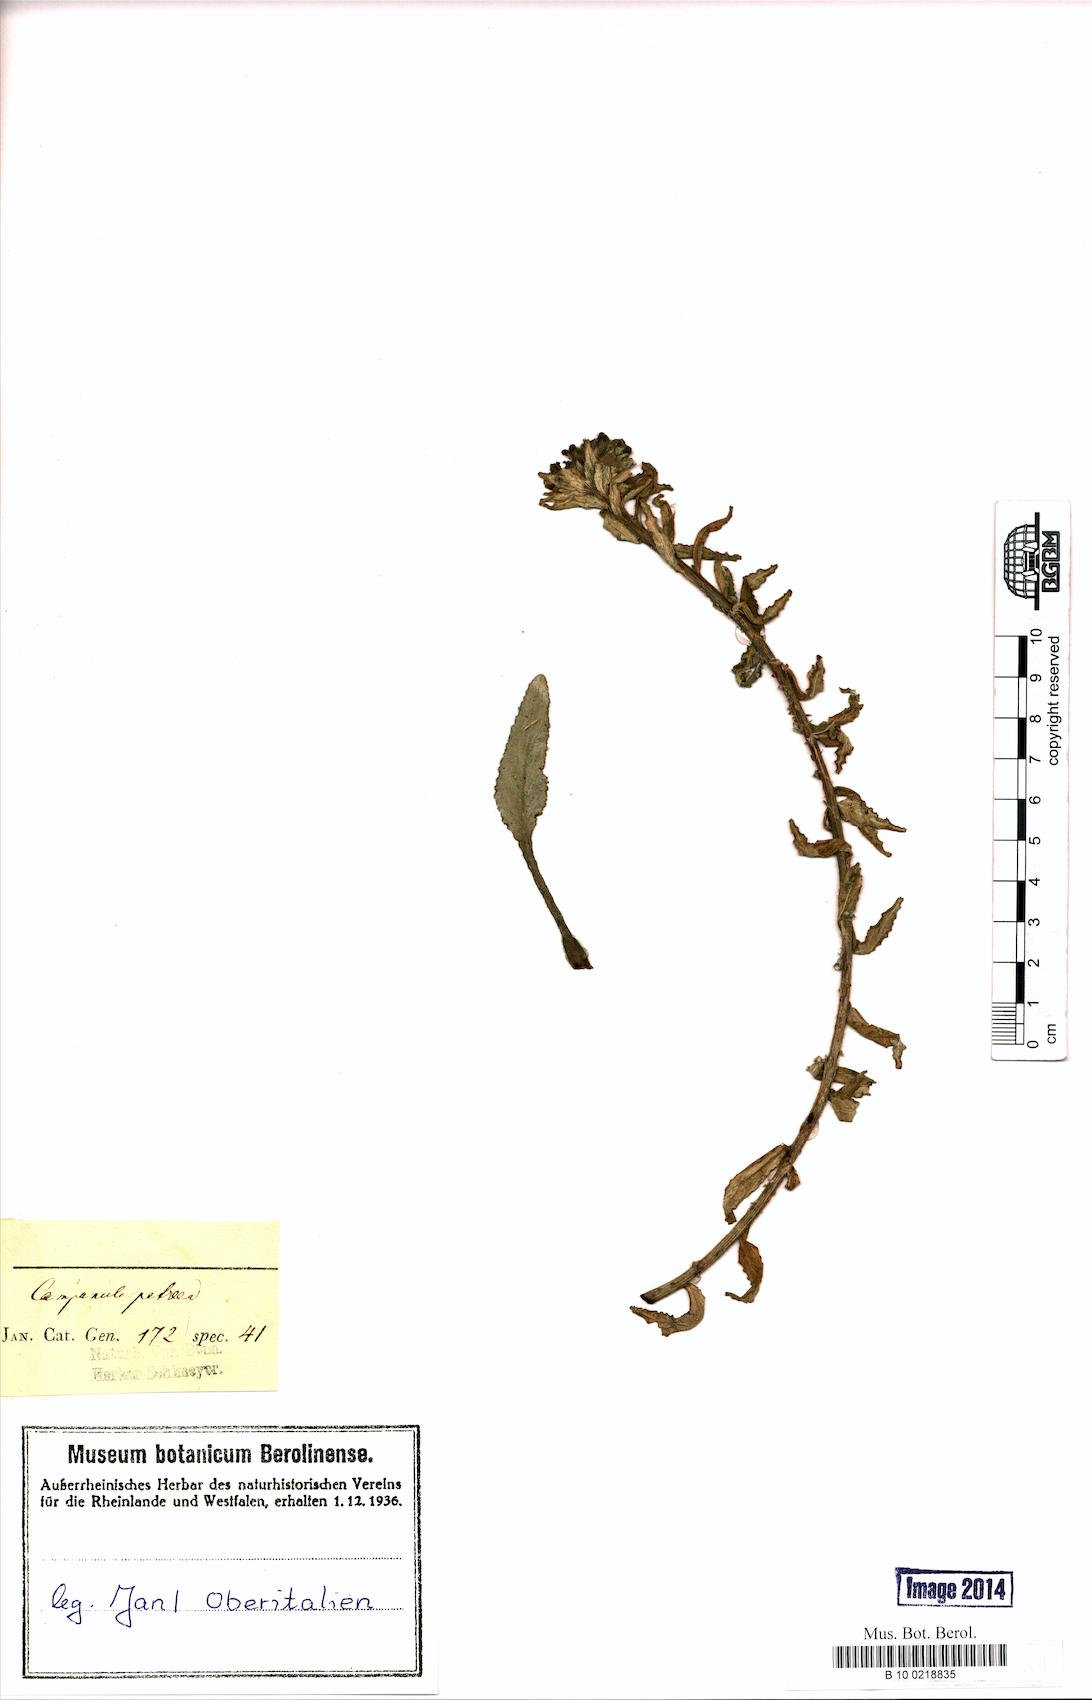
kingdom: Plantae
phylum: Tracheophyta
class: Magnoliopsida
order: Asterales
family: Campanulaceae
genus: Campanula
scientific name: Campanula petraea
